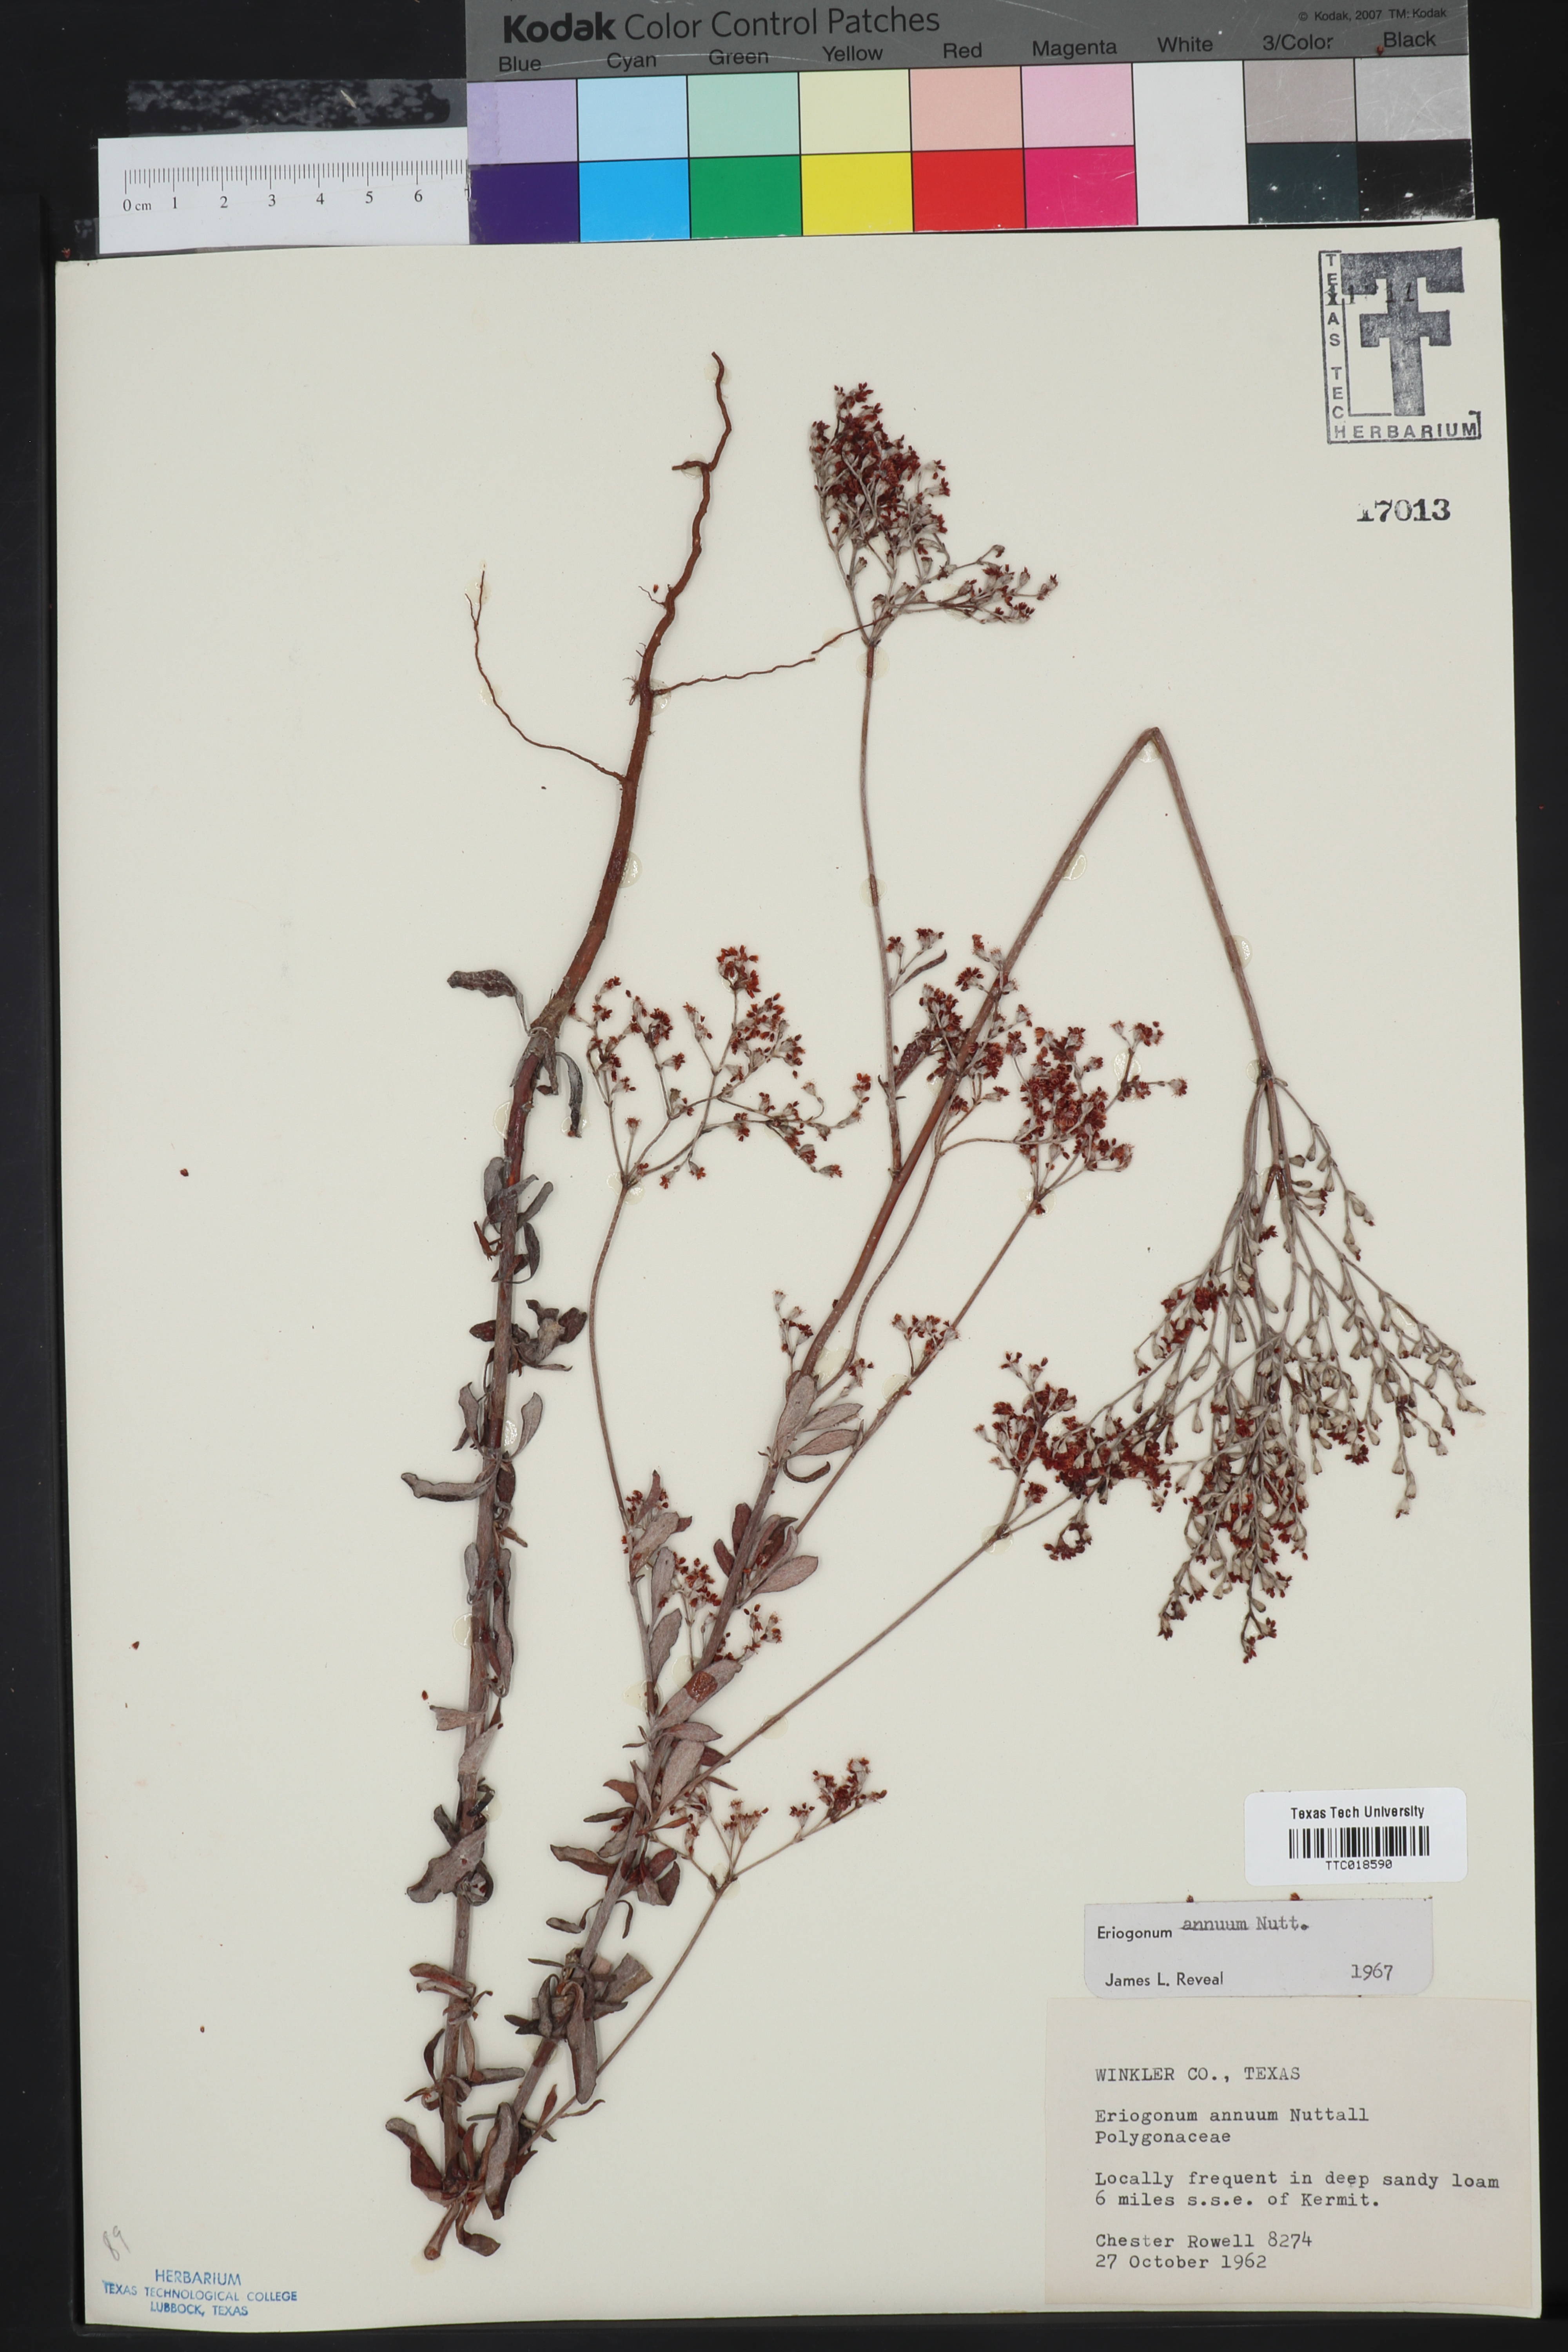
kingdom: Plantae
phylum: Tracheophyta
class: Magnoliopsida
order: Caryophyllales
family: Polygonaceae
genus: Eriogonum
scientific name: Eriogonum annuum
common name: Annual wild buckwheat
